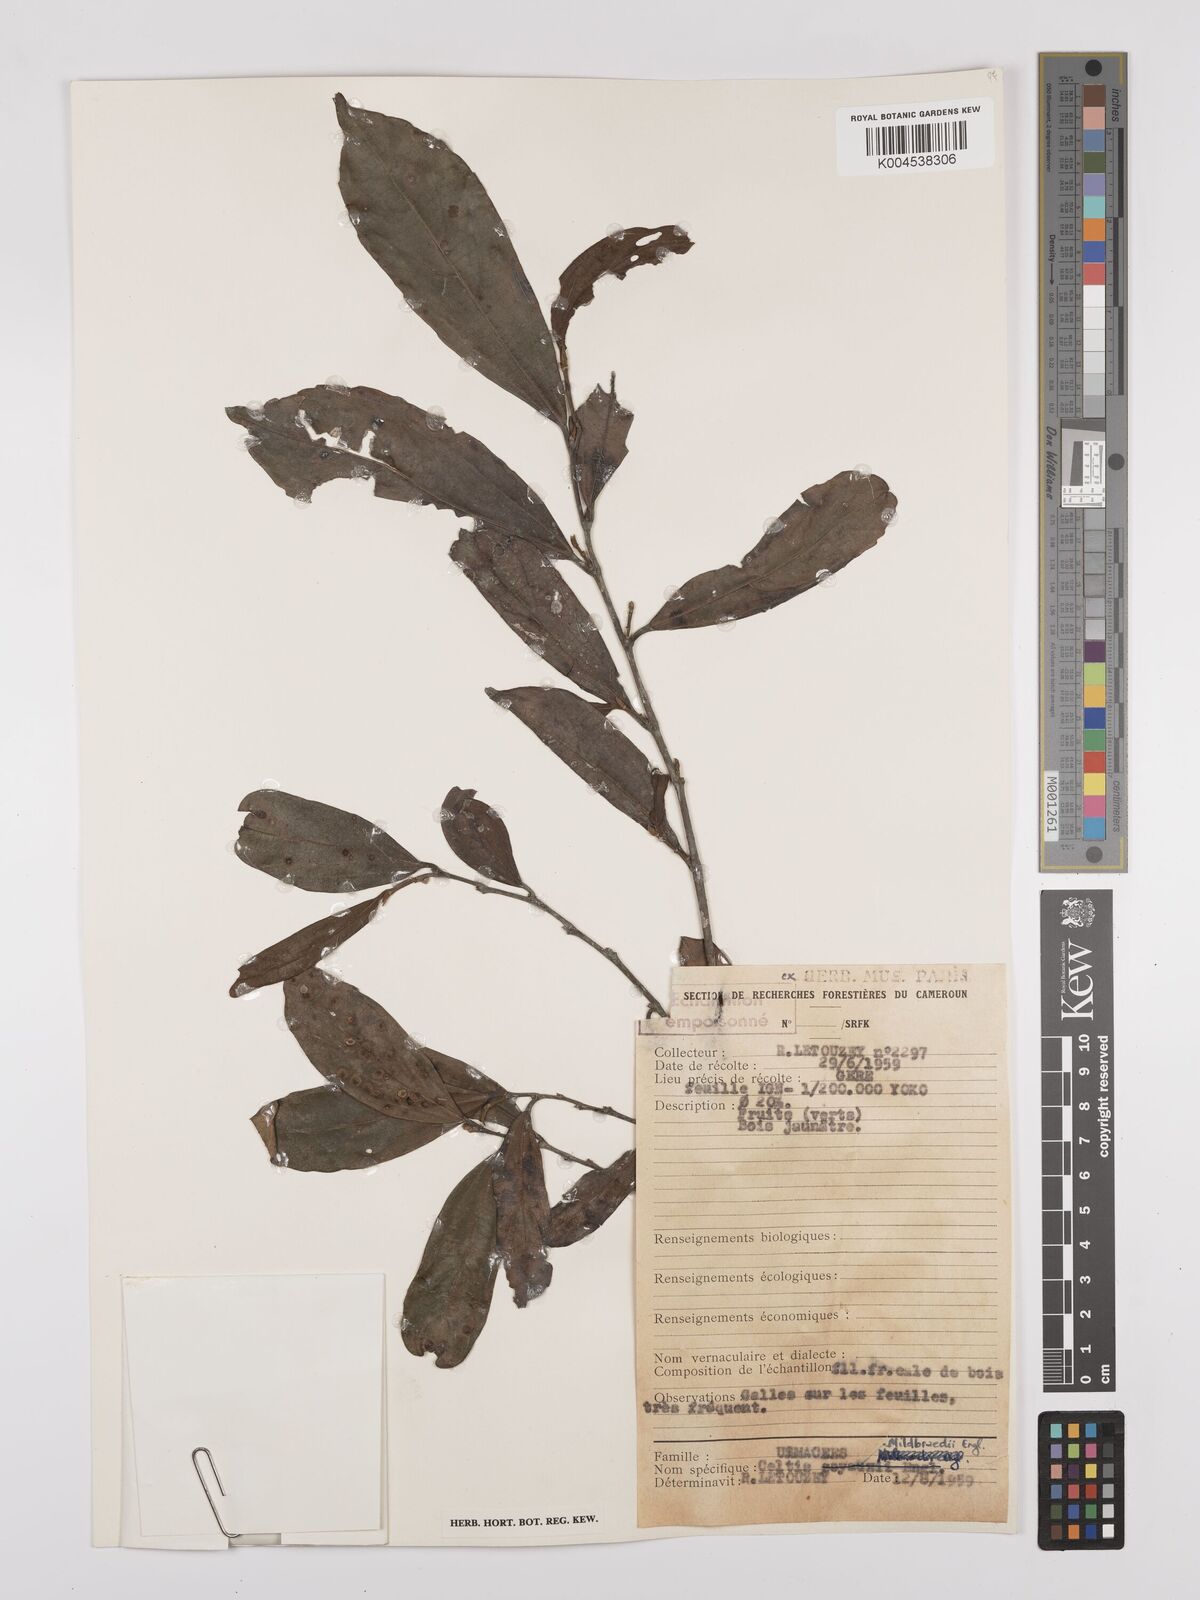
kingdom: Plantae
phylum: Tracheophyta
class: Magnoliopsida
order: Rosales
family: Cannabaceae
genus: Celtis
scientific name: Celtis mildbraedii
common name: Red-fruited stinkwood
